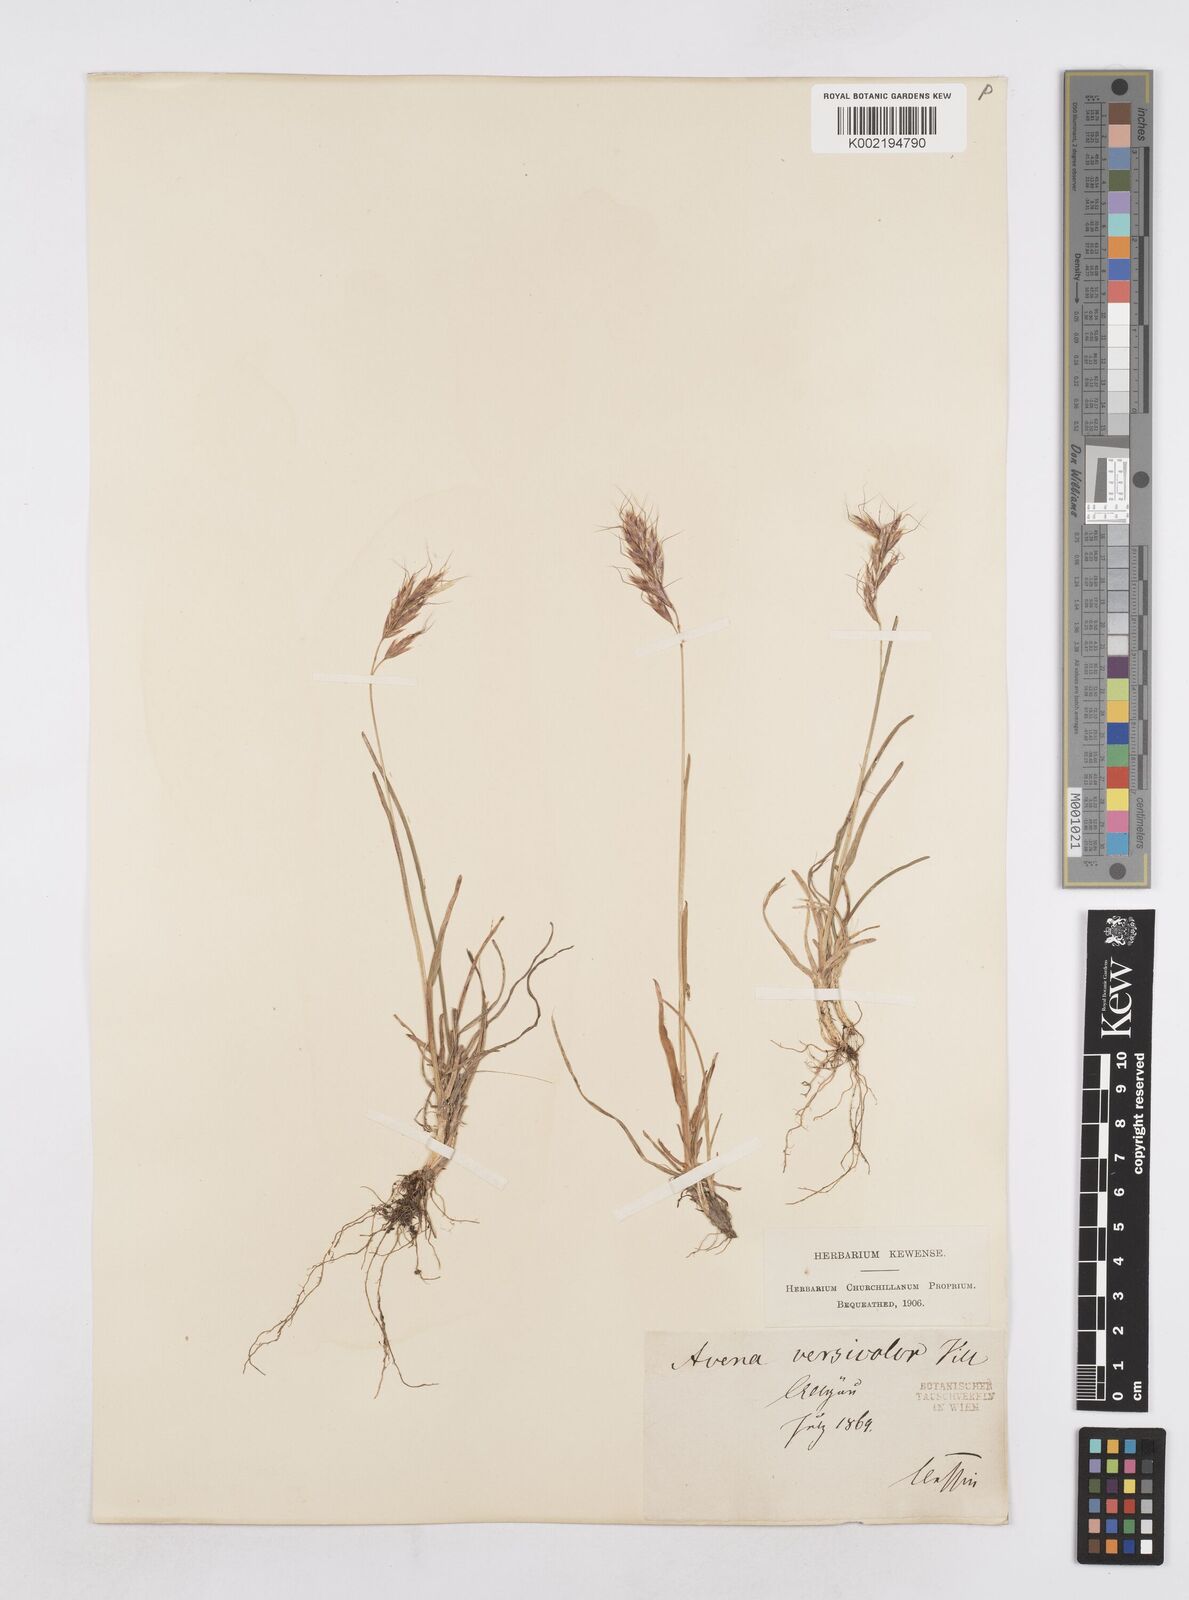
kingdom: Plantae
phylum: Tracheophyta
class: Liliopsida
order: Poales
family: Poaceae
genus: Helictochloa
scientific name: Helictochloa versicolor
